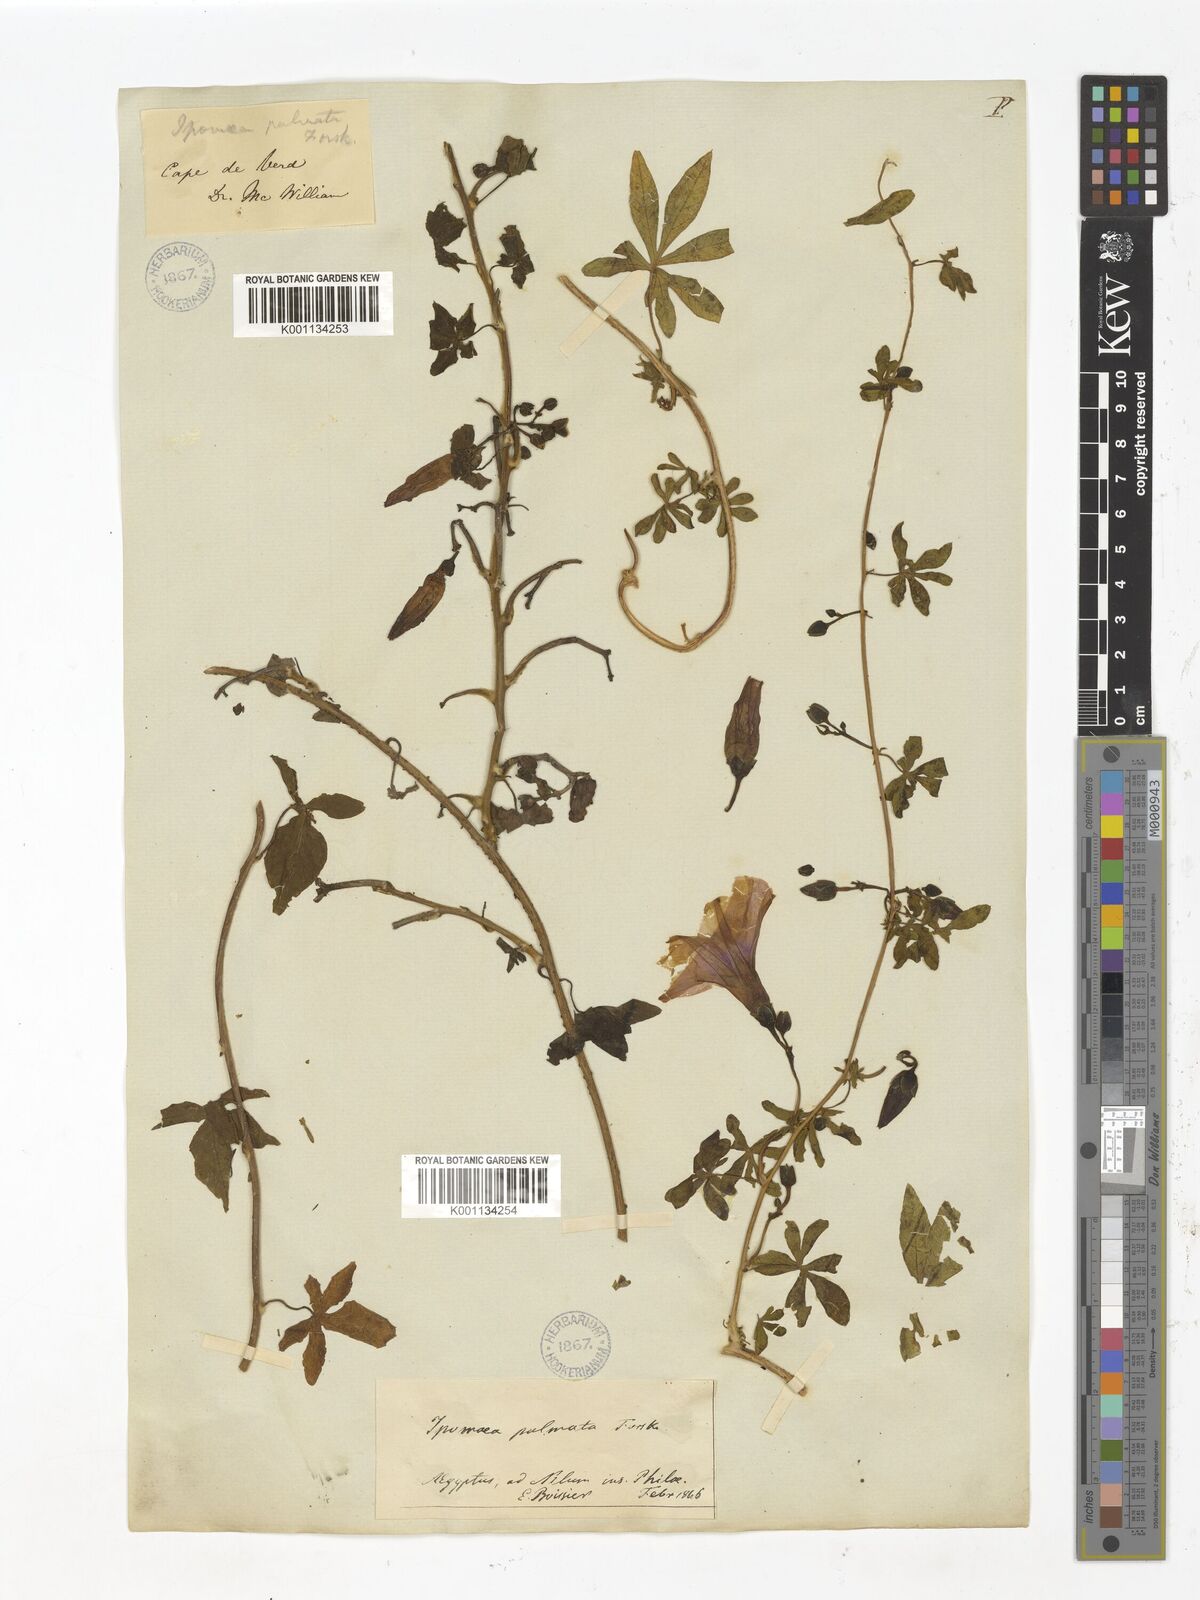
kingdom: Plantae
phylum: Tracheophyta
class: Magnoliopsida
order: Solanales
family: Convolvulaceae
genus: Ipomoea
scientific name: Ipomoea cairica
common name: Mile a minute vine
